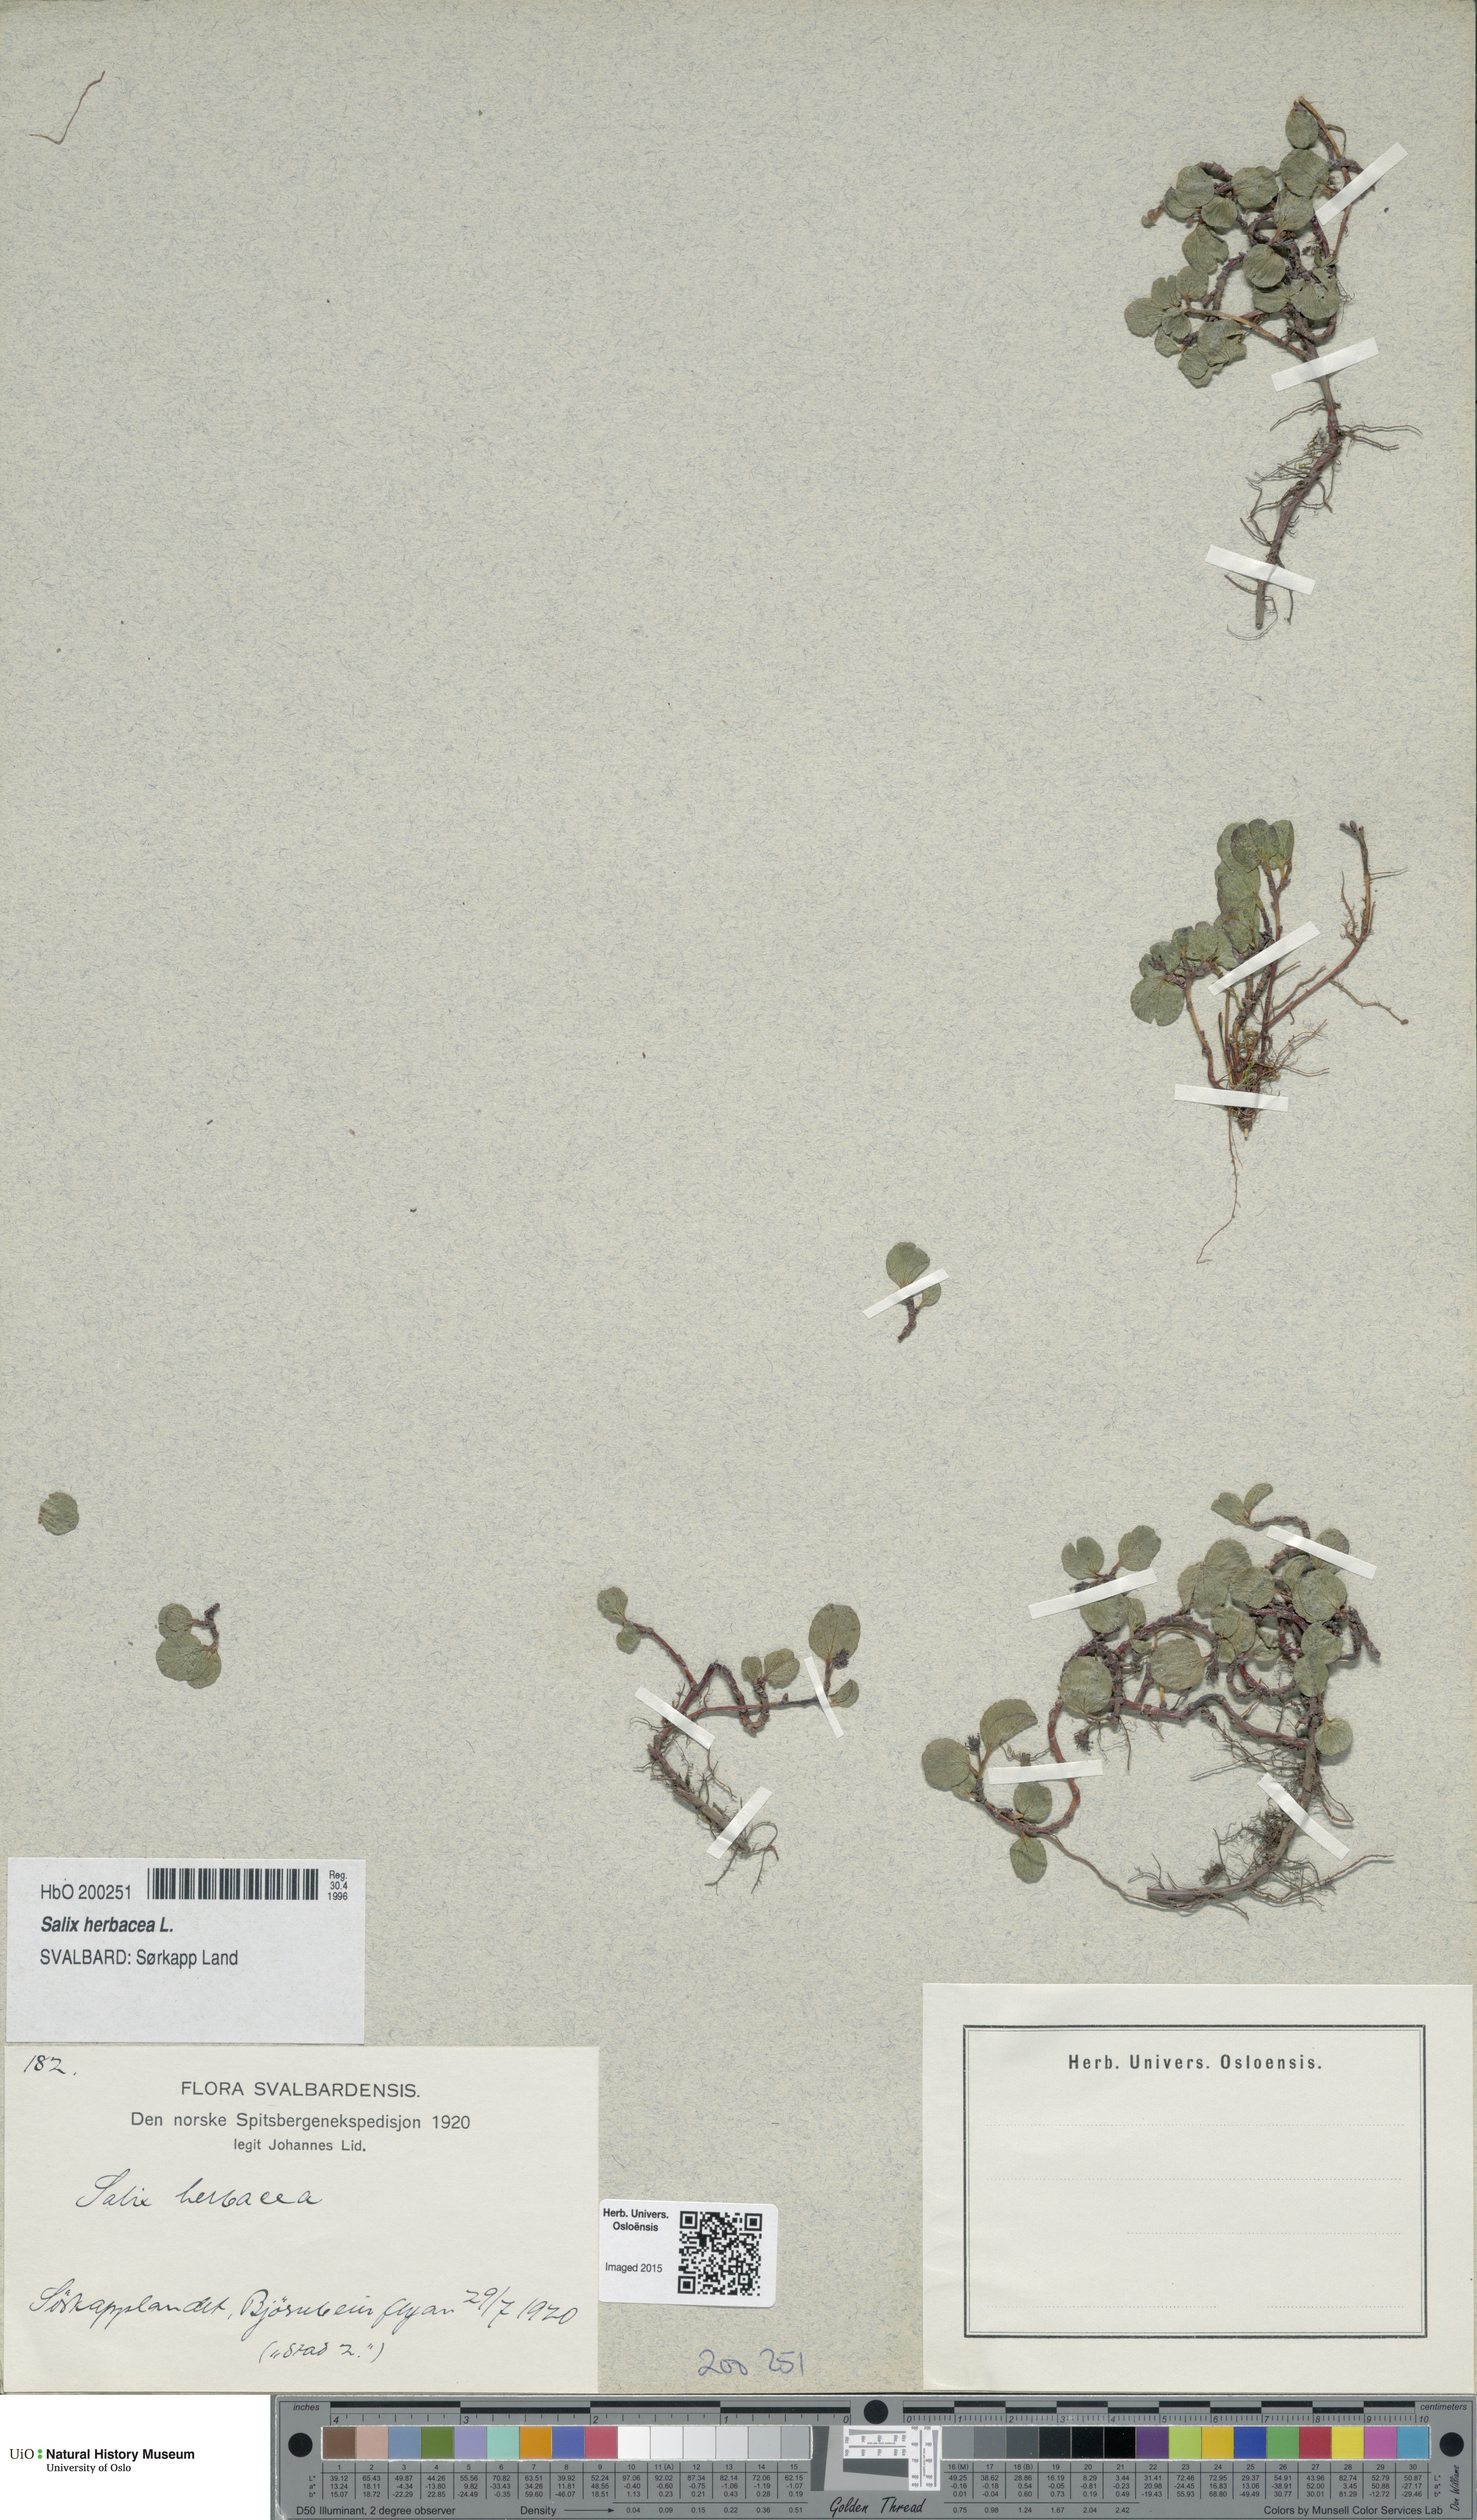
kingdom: Plantae
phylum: Tracheophyta
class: Magnoliopsida
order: Malpighiales
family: Salicaceae
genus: Salix
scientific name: Salix herbacea
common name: Dwarf willow
